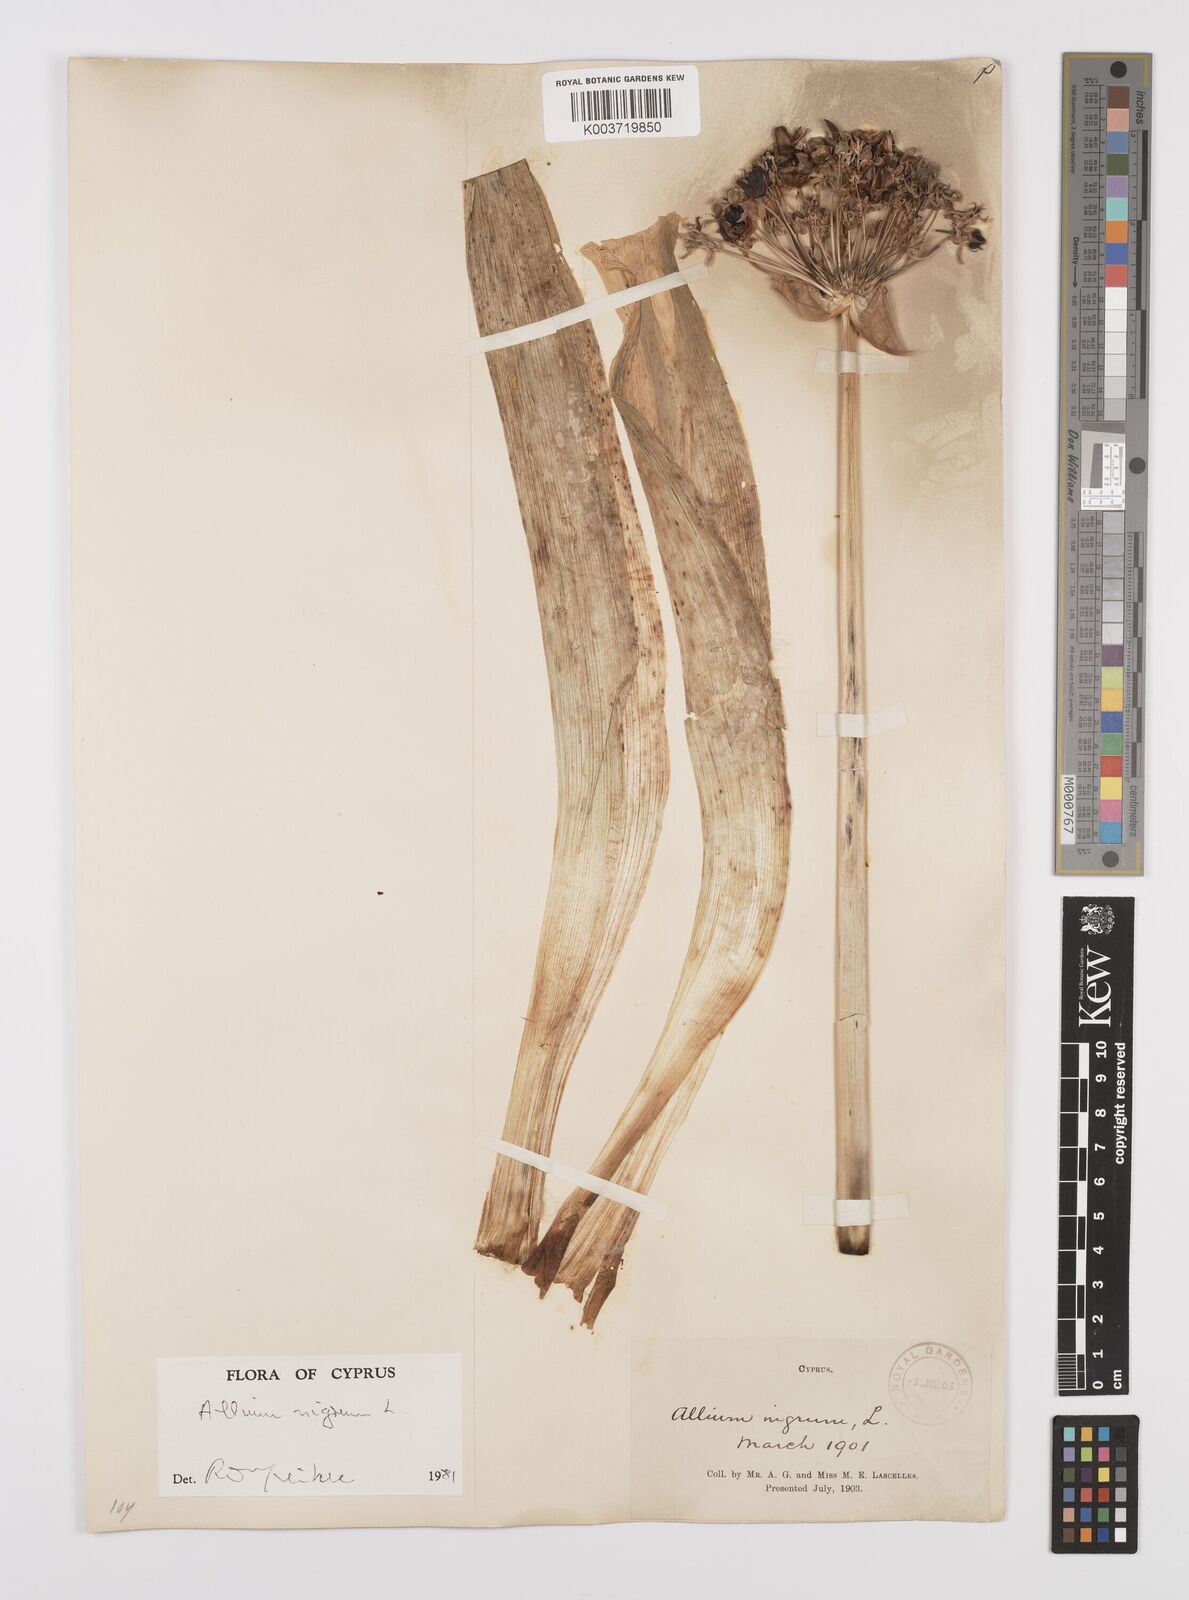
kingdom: Plantae
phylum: Tracheophyta
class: Liliopsida
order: Asparagales
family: Amaryllidaceae
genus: Allium
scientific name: Allium nigrum
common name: Black garlic
